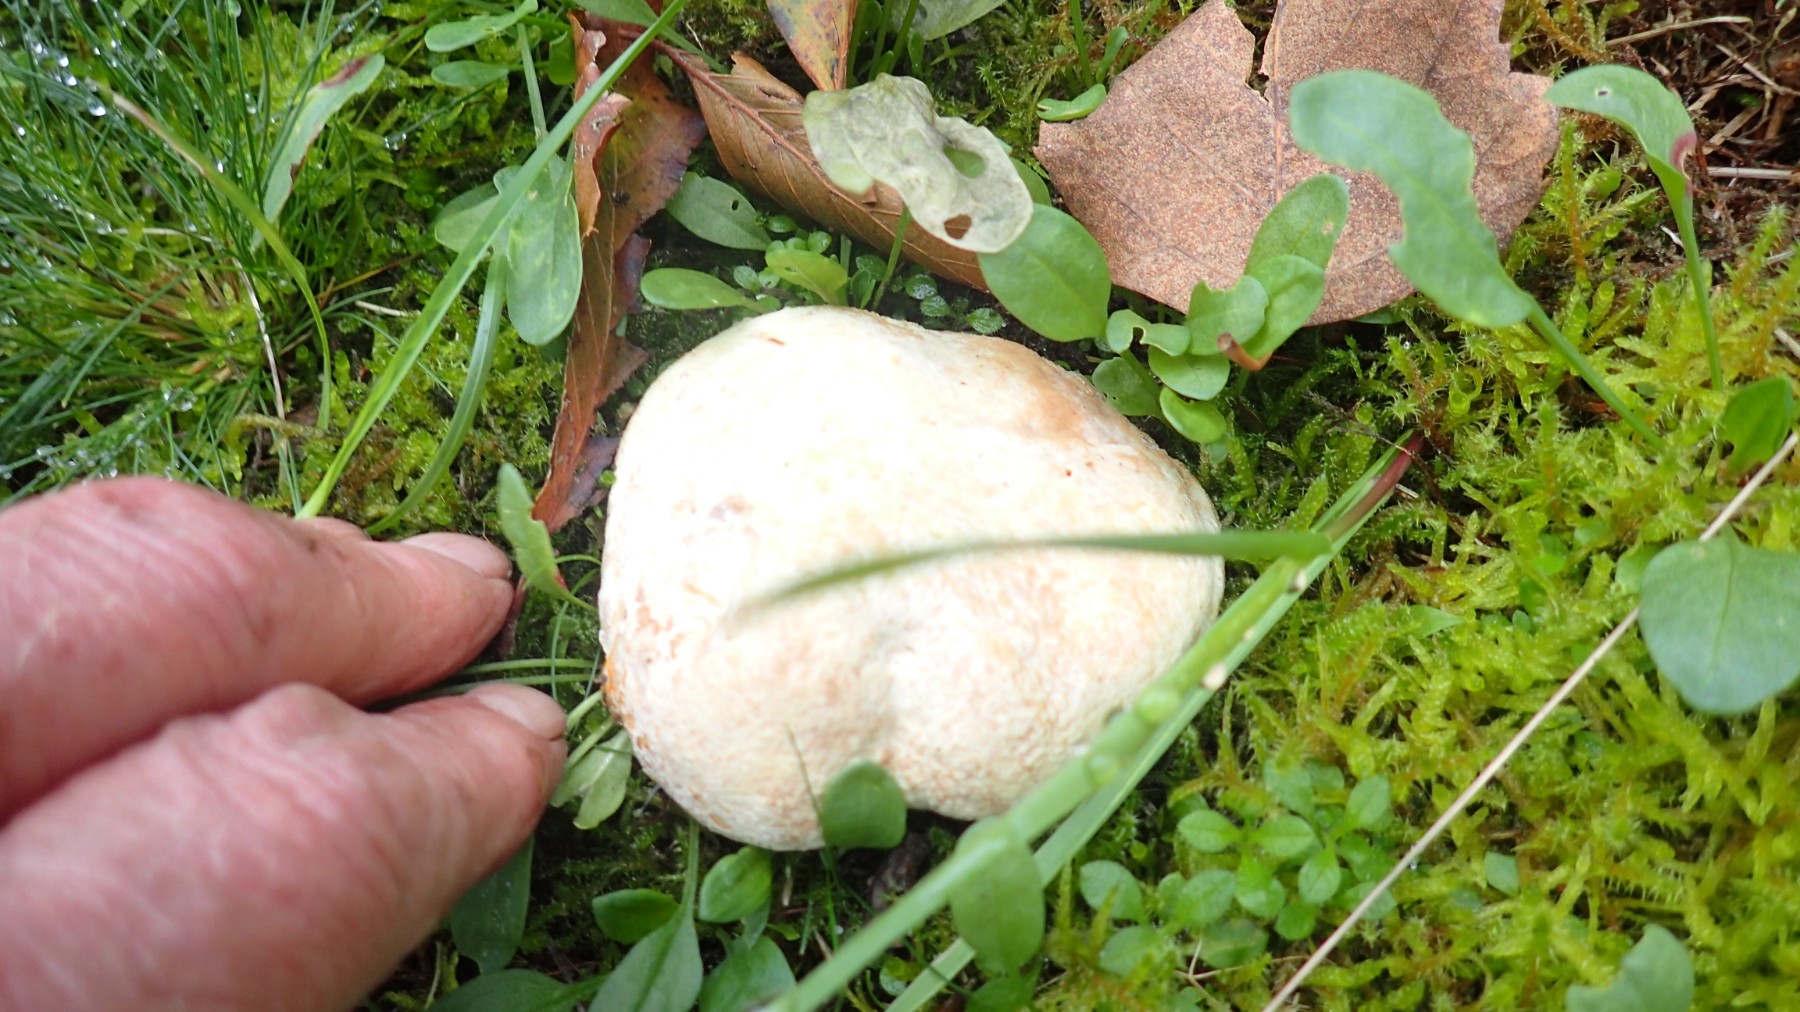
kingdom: Fungi
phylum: Ascomycota
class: Sordariomycetes
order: Hypocreales
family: Hypocreaceae
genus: Hypomyces
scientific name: Hypomyces microspermus
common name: dværgrørhat-snylteskorpe
